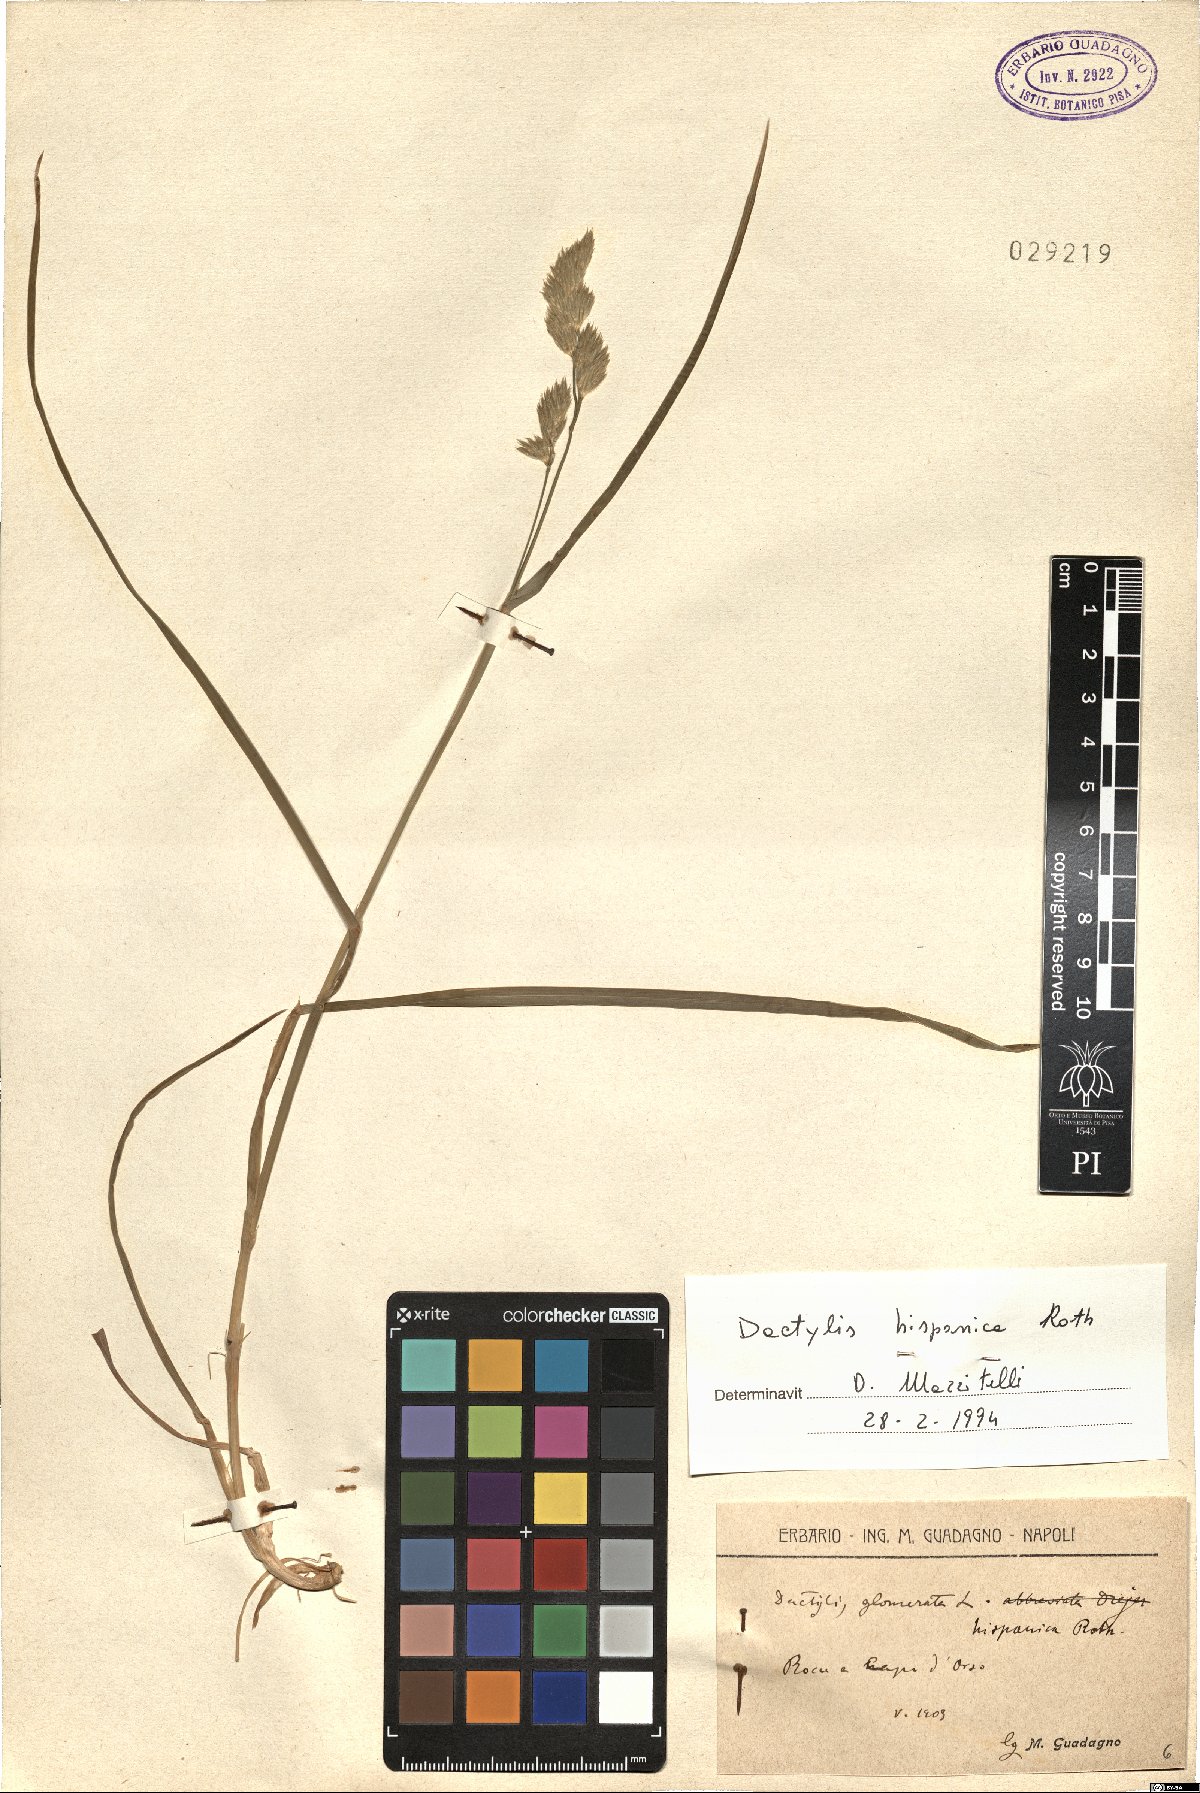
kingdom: Plantae
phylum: Tracheophyta
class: Liliopsida
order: Poales
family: Poaceae
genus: Dactylis
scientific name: Dactylis glomerata
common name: Orchardgrass
